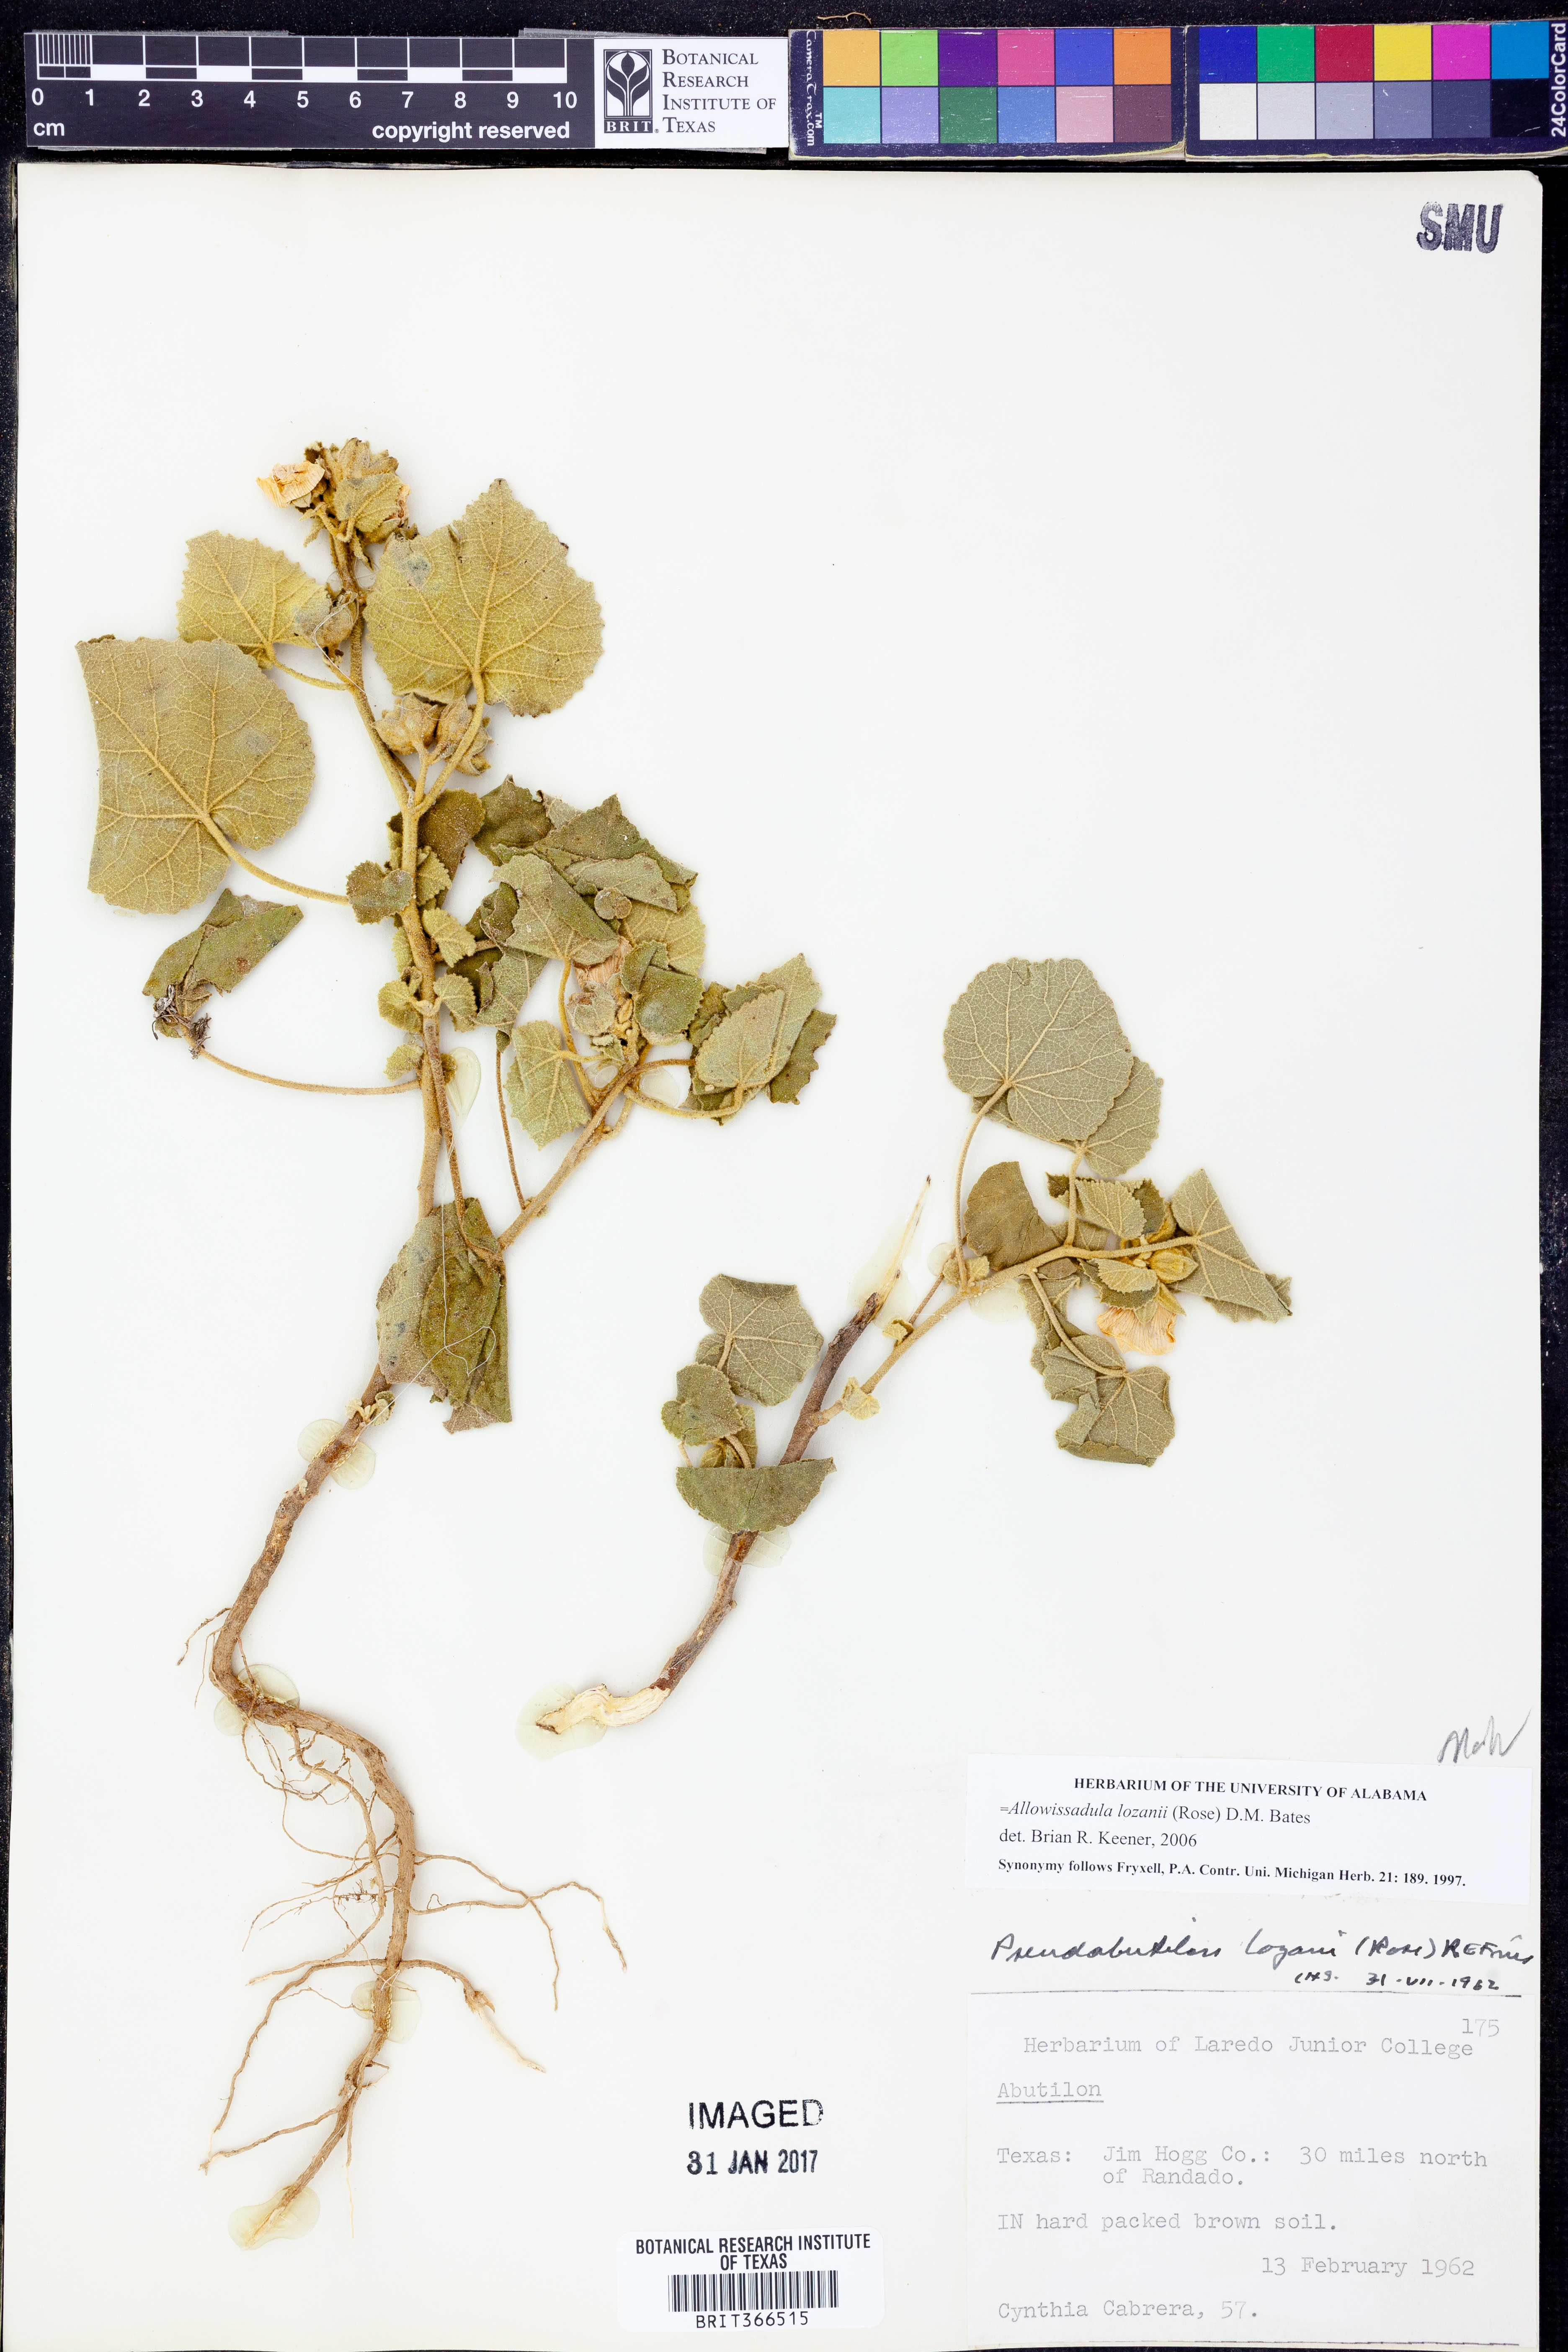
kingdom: Plantae
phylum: Tracheophyta
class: Magnoliopsida
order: Malvales
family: Malvaceae
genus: Allowissadula
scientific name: Allowissadula lozanii
